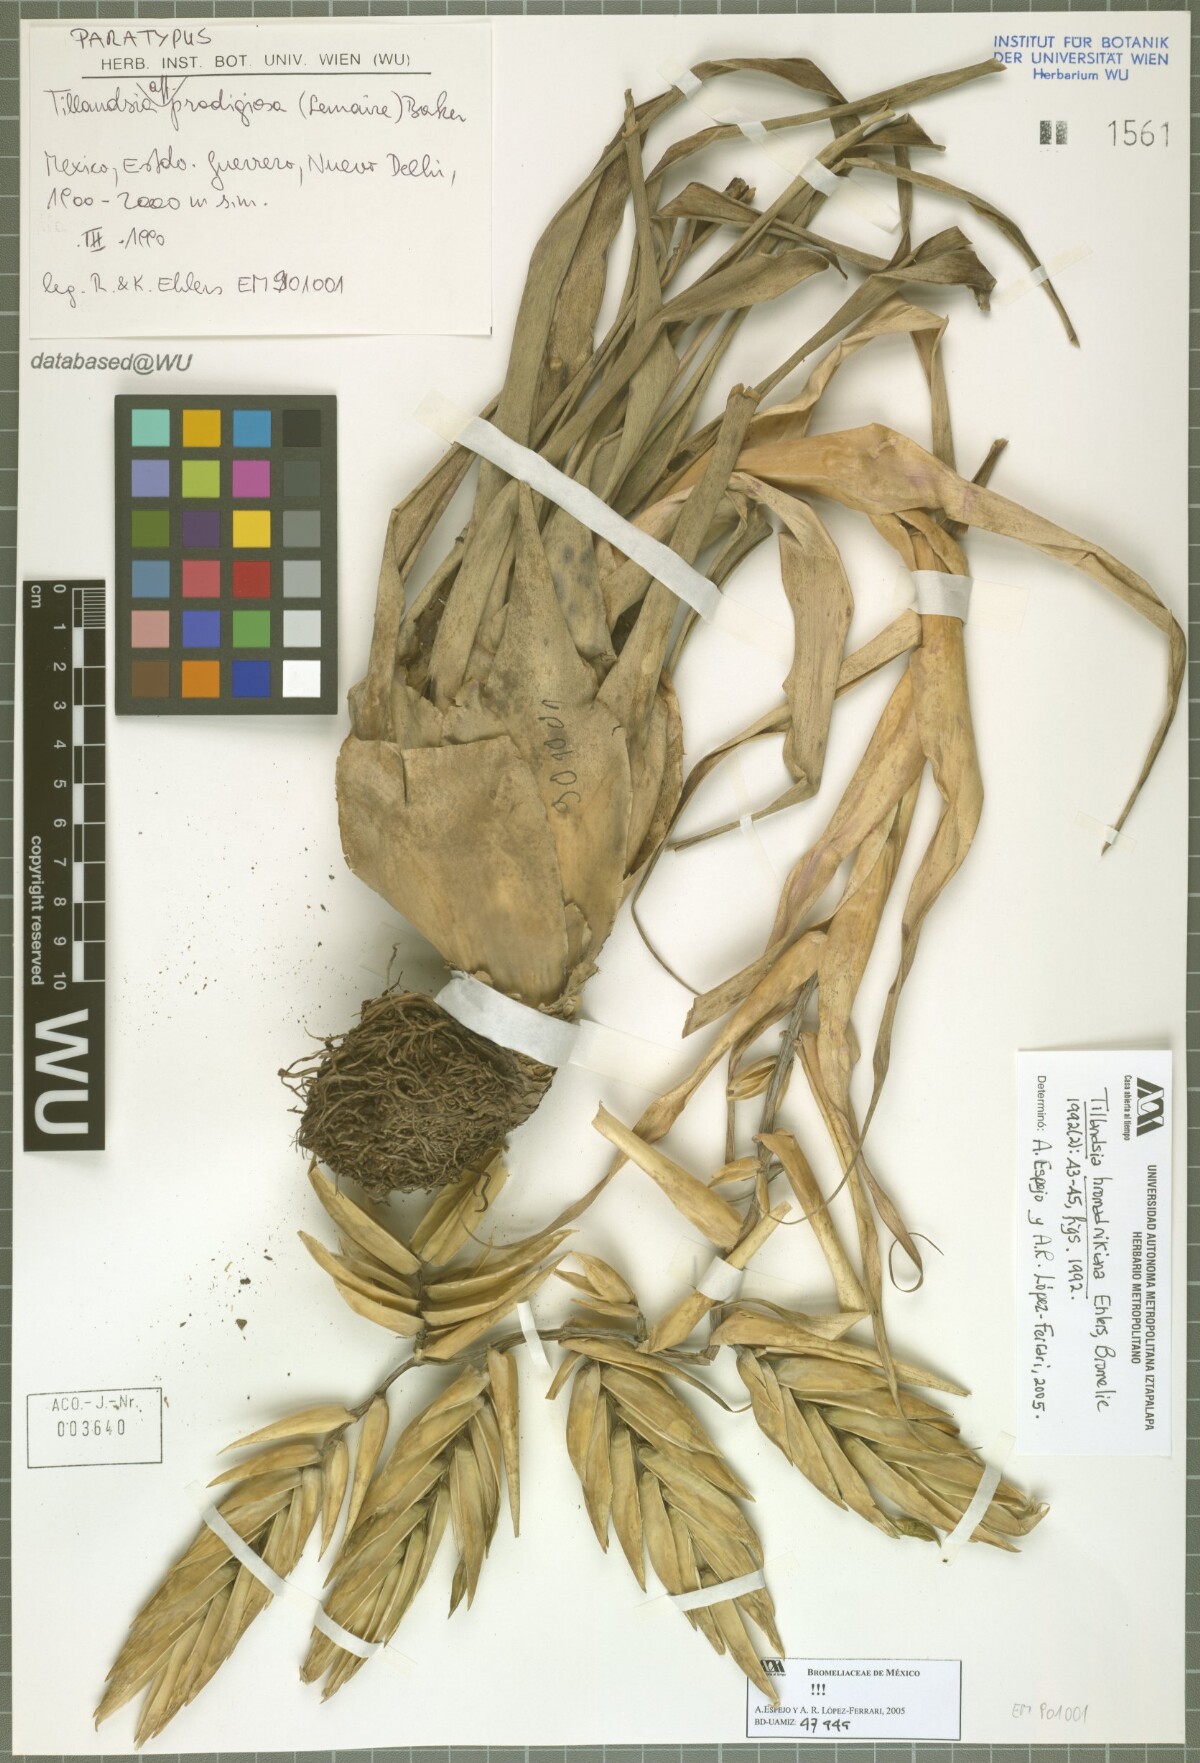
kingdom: Plantae
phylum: Tracheophyta
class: Liliopsida
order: Poales
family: Bromeliaceae
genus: Tillandsia
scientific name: Tillandsia prodigiosa
